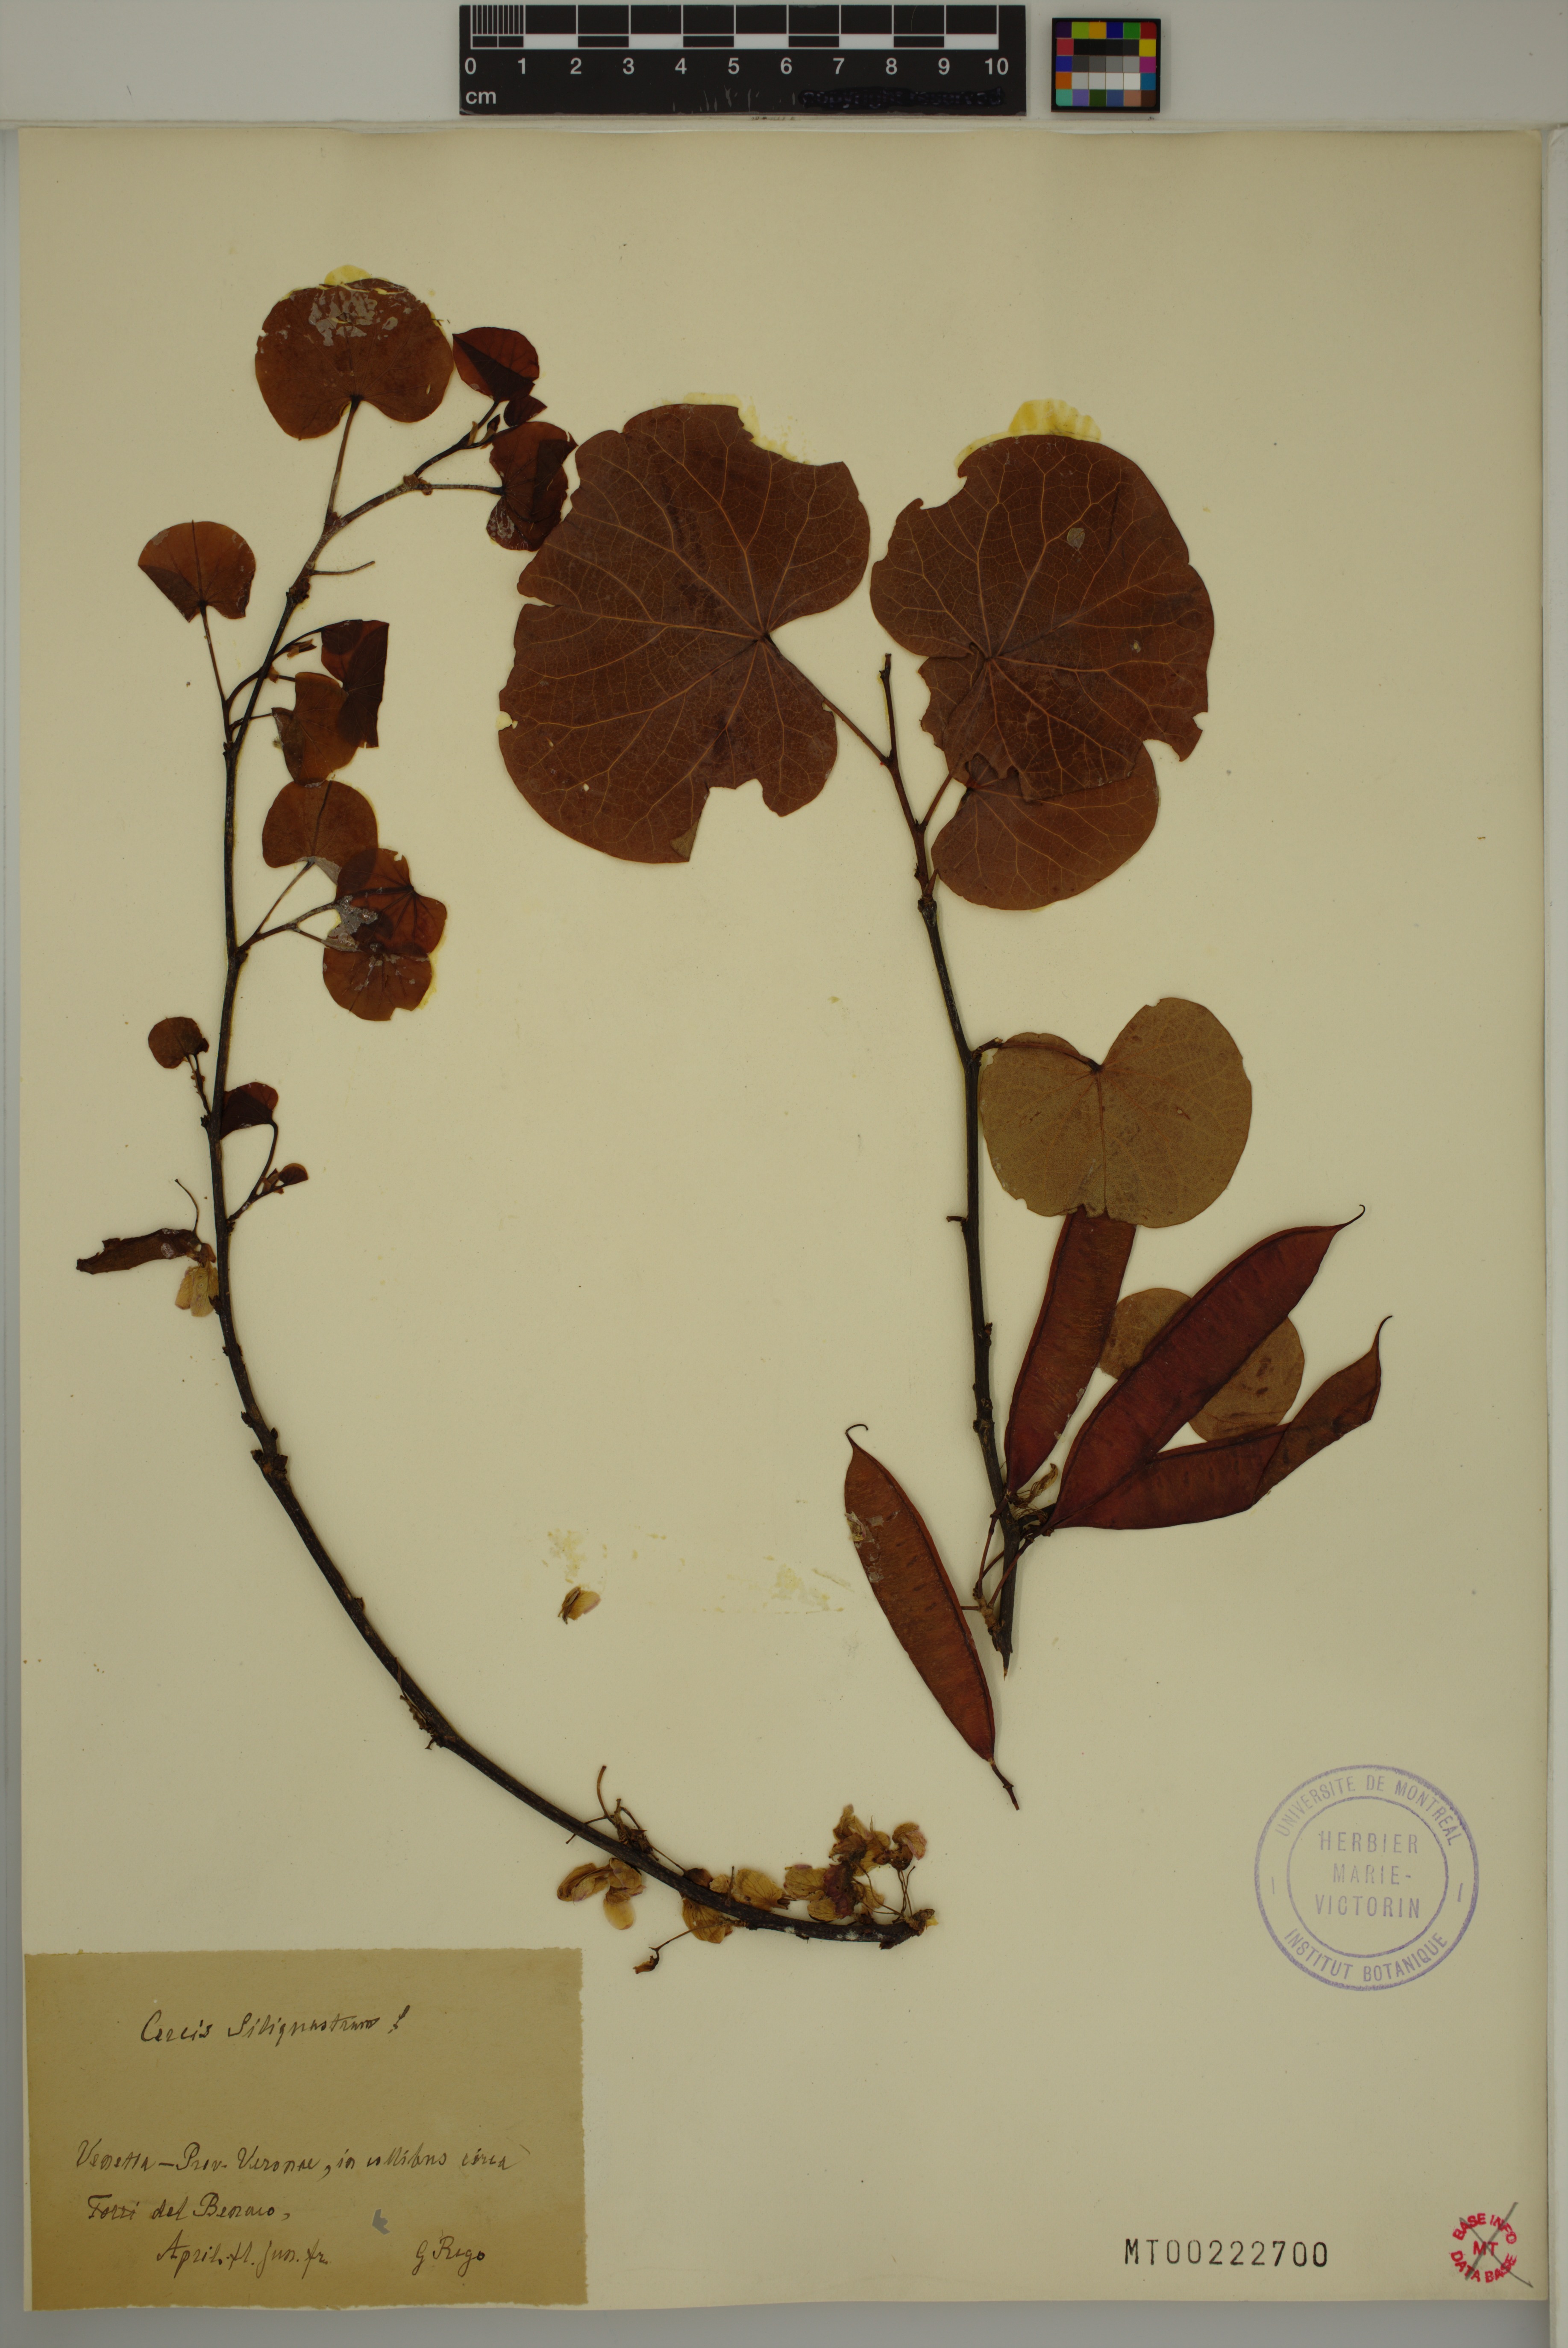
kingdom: Plantae
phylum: Tracheophyta
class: Magnoliopsida
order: Fabales
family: Fabaceae
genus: Cercis
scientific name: Cercis siliquastrum
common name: Judas tree
